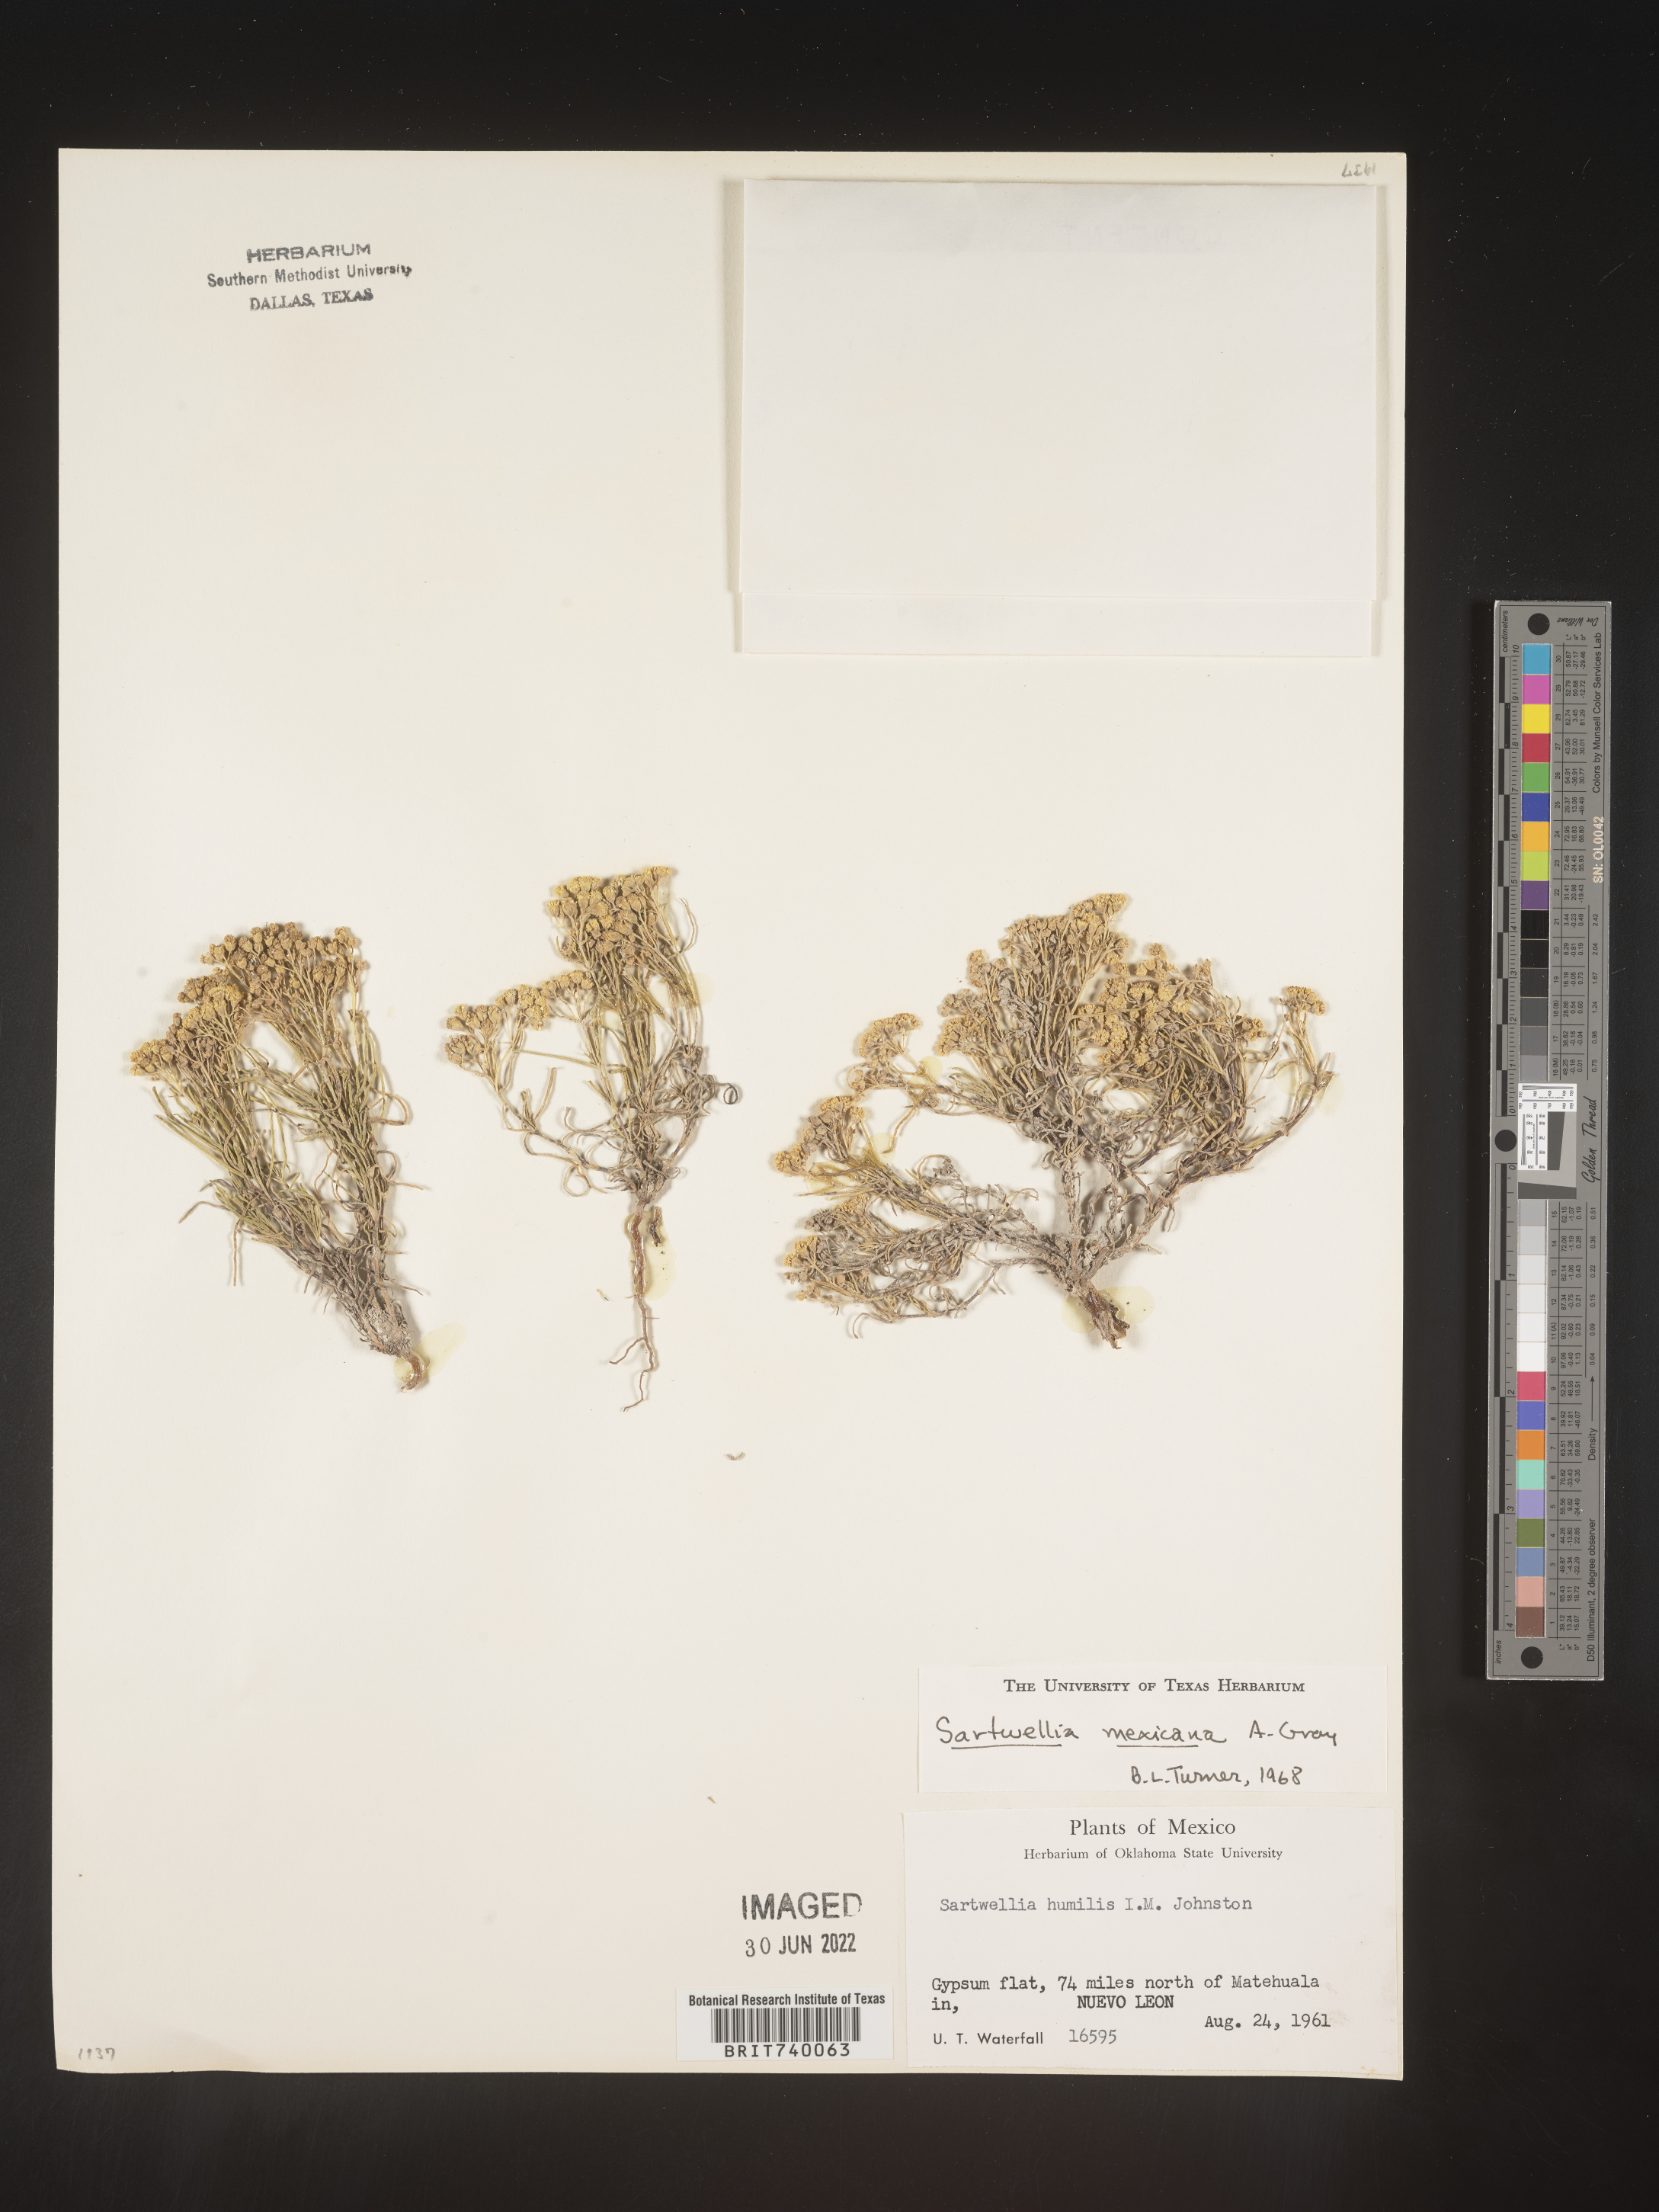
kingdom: Plantae
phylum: Tracheophyta
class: Magnoliopsida
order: Asterales
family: Asteraceae
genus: Sartwellia
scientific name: Sartwellia
